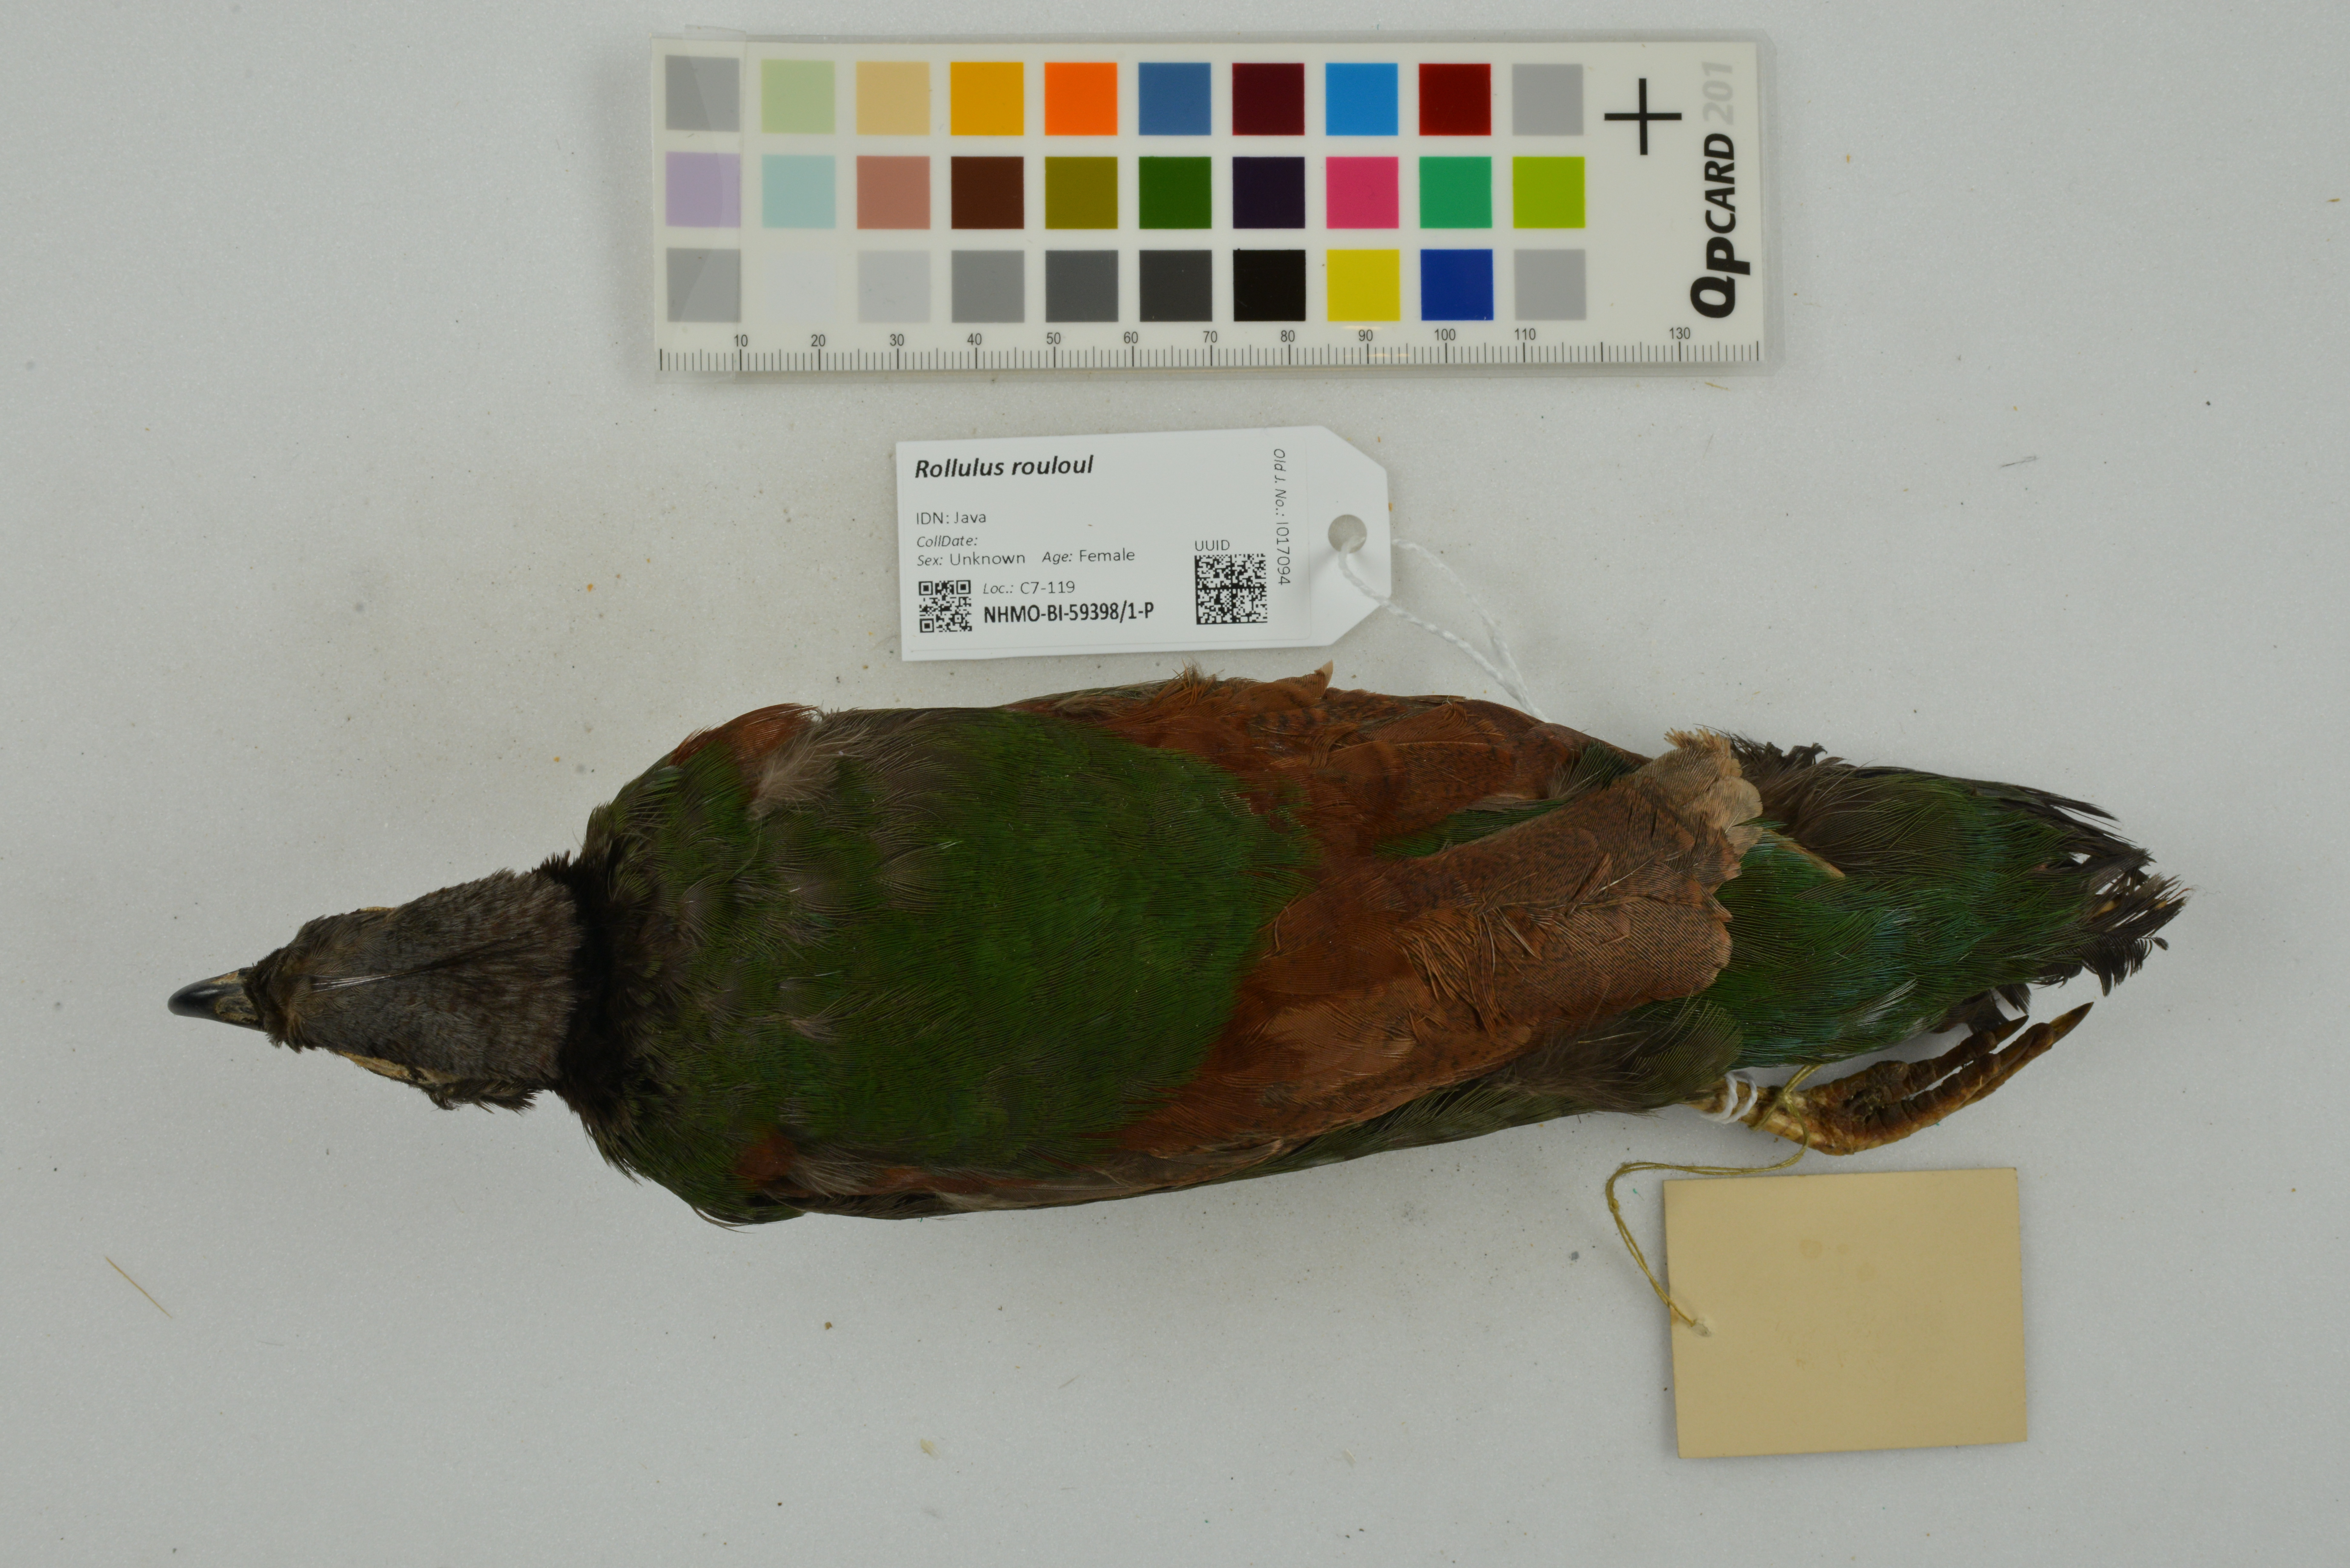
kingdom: Animalia
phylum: Chordata
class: Aves
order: Galliformes
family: Phasianidae
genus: Rollulus
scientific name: Rollulus rouloul
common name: Crested partridge
